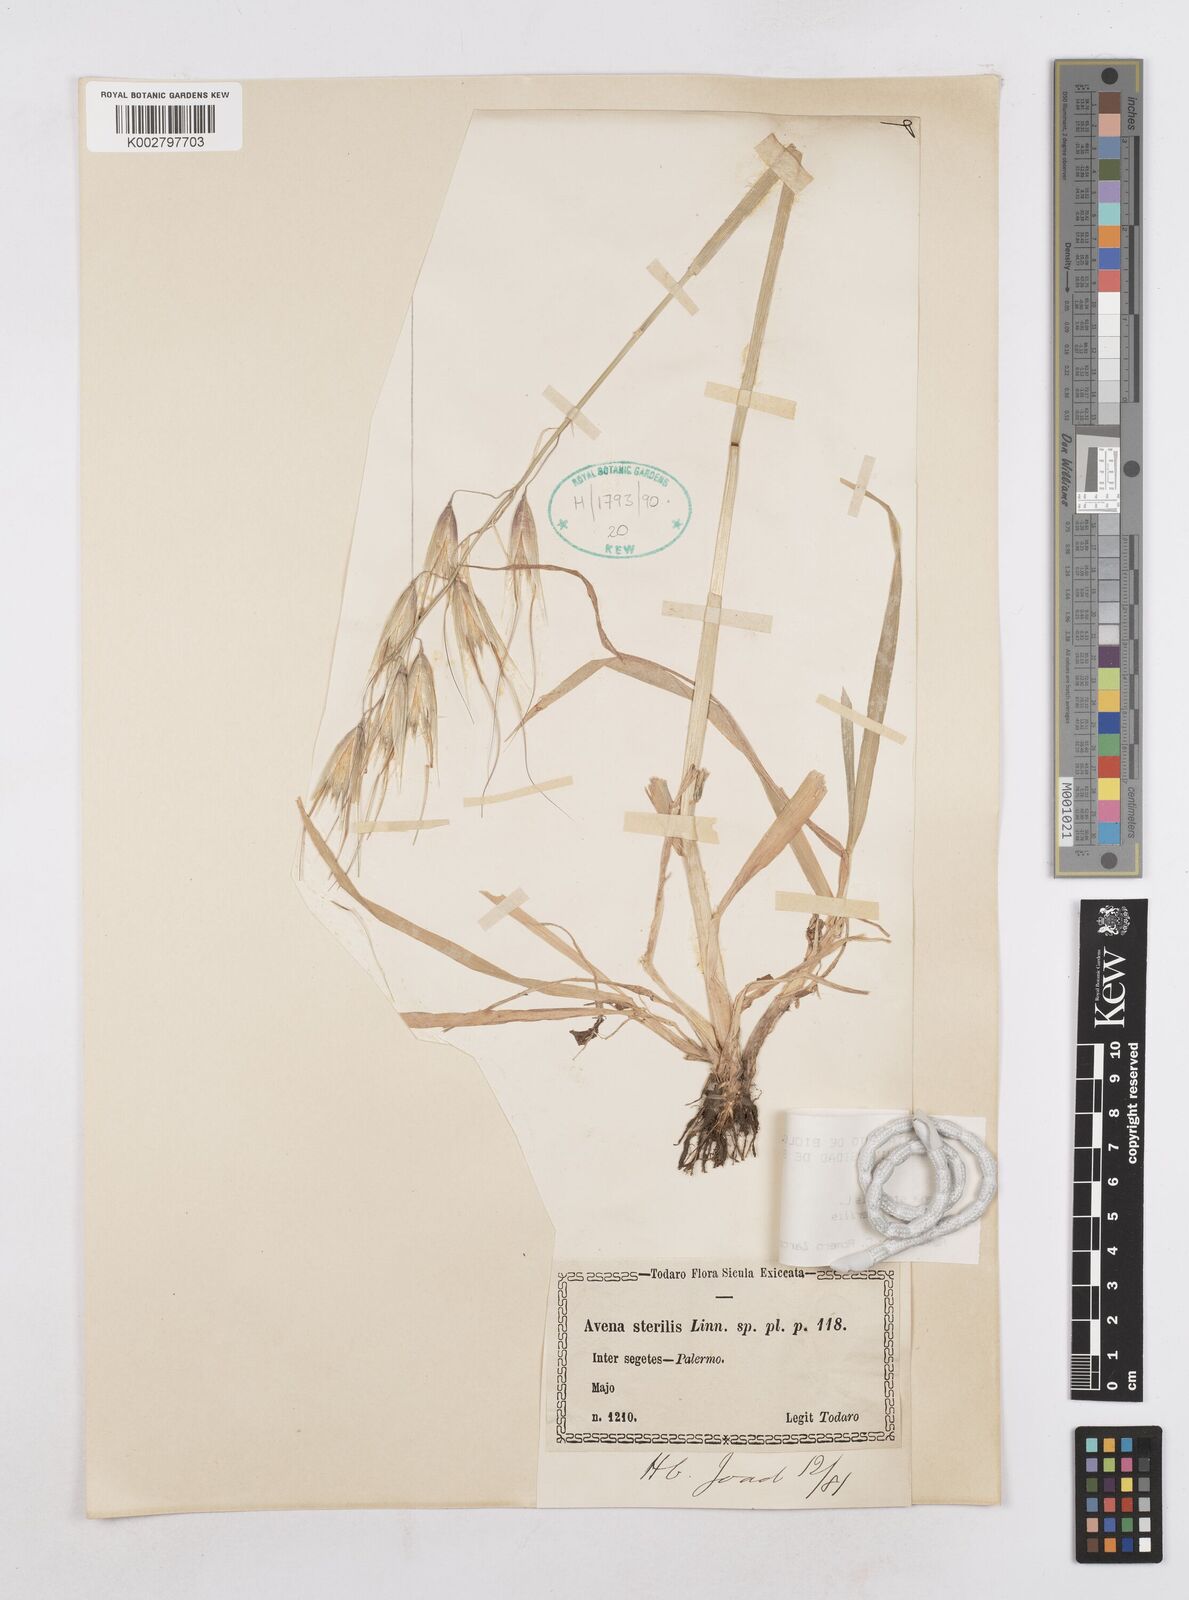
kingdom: Plantae
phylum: Tracheophyta
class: Liliopsida
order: Poales
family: Poaceae
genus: Avena
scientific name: Avena sterilis
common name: Animated oat
